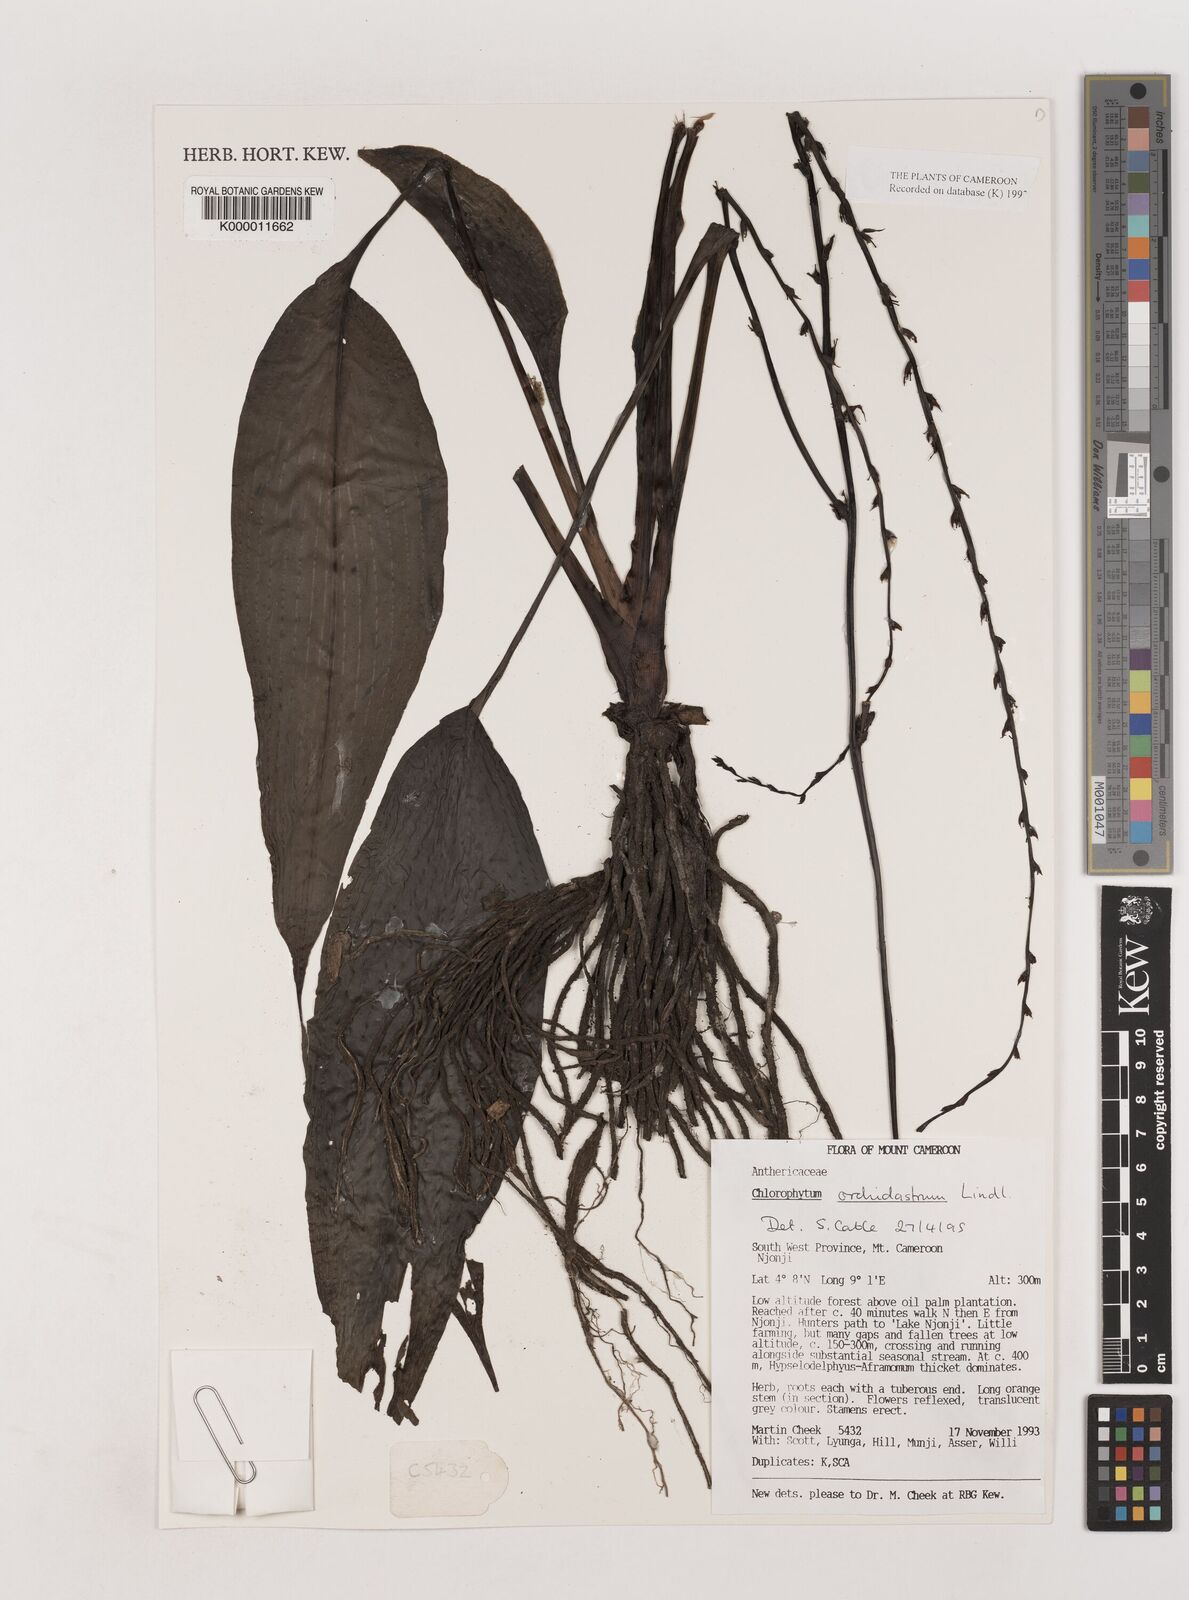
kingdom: Plantae
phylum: Tracheophyta
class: Liliopsida
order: Asparagales
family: Asparagaceae
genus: Chlorophytum
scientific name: Chlorophytum orchidastrum
